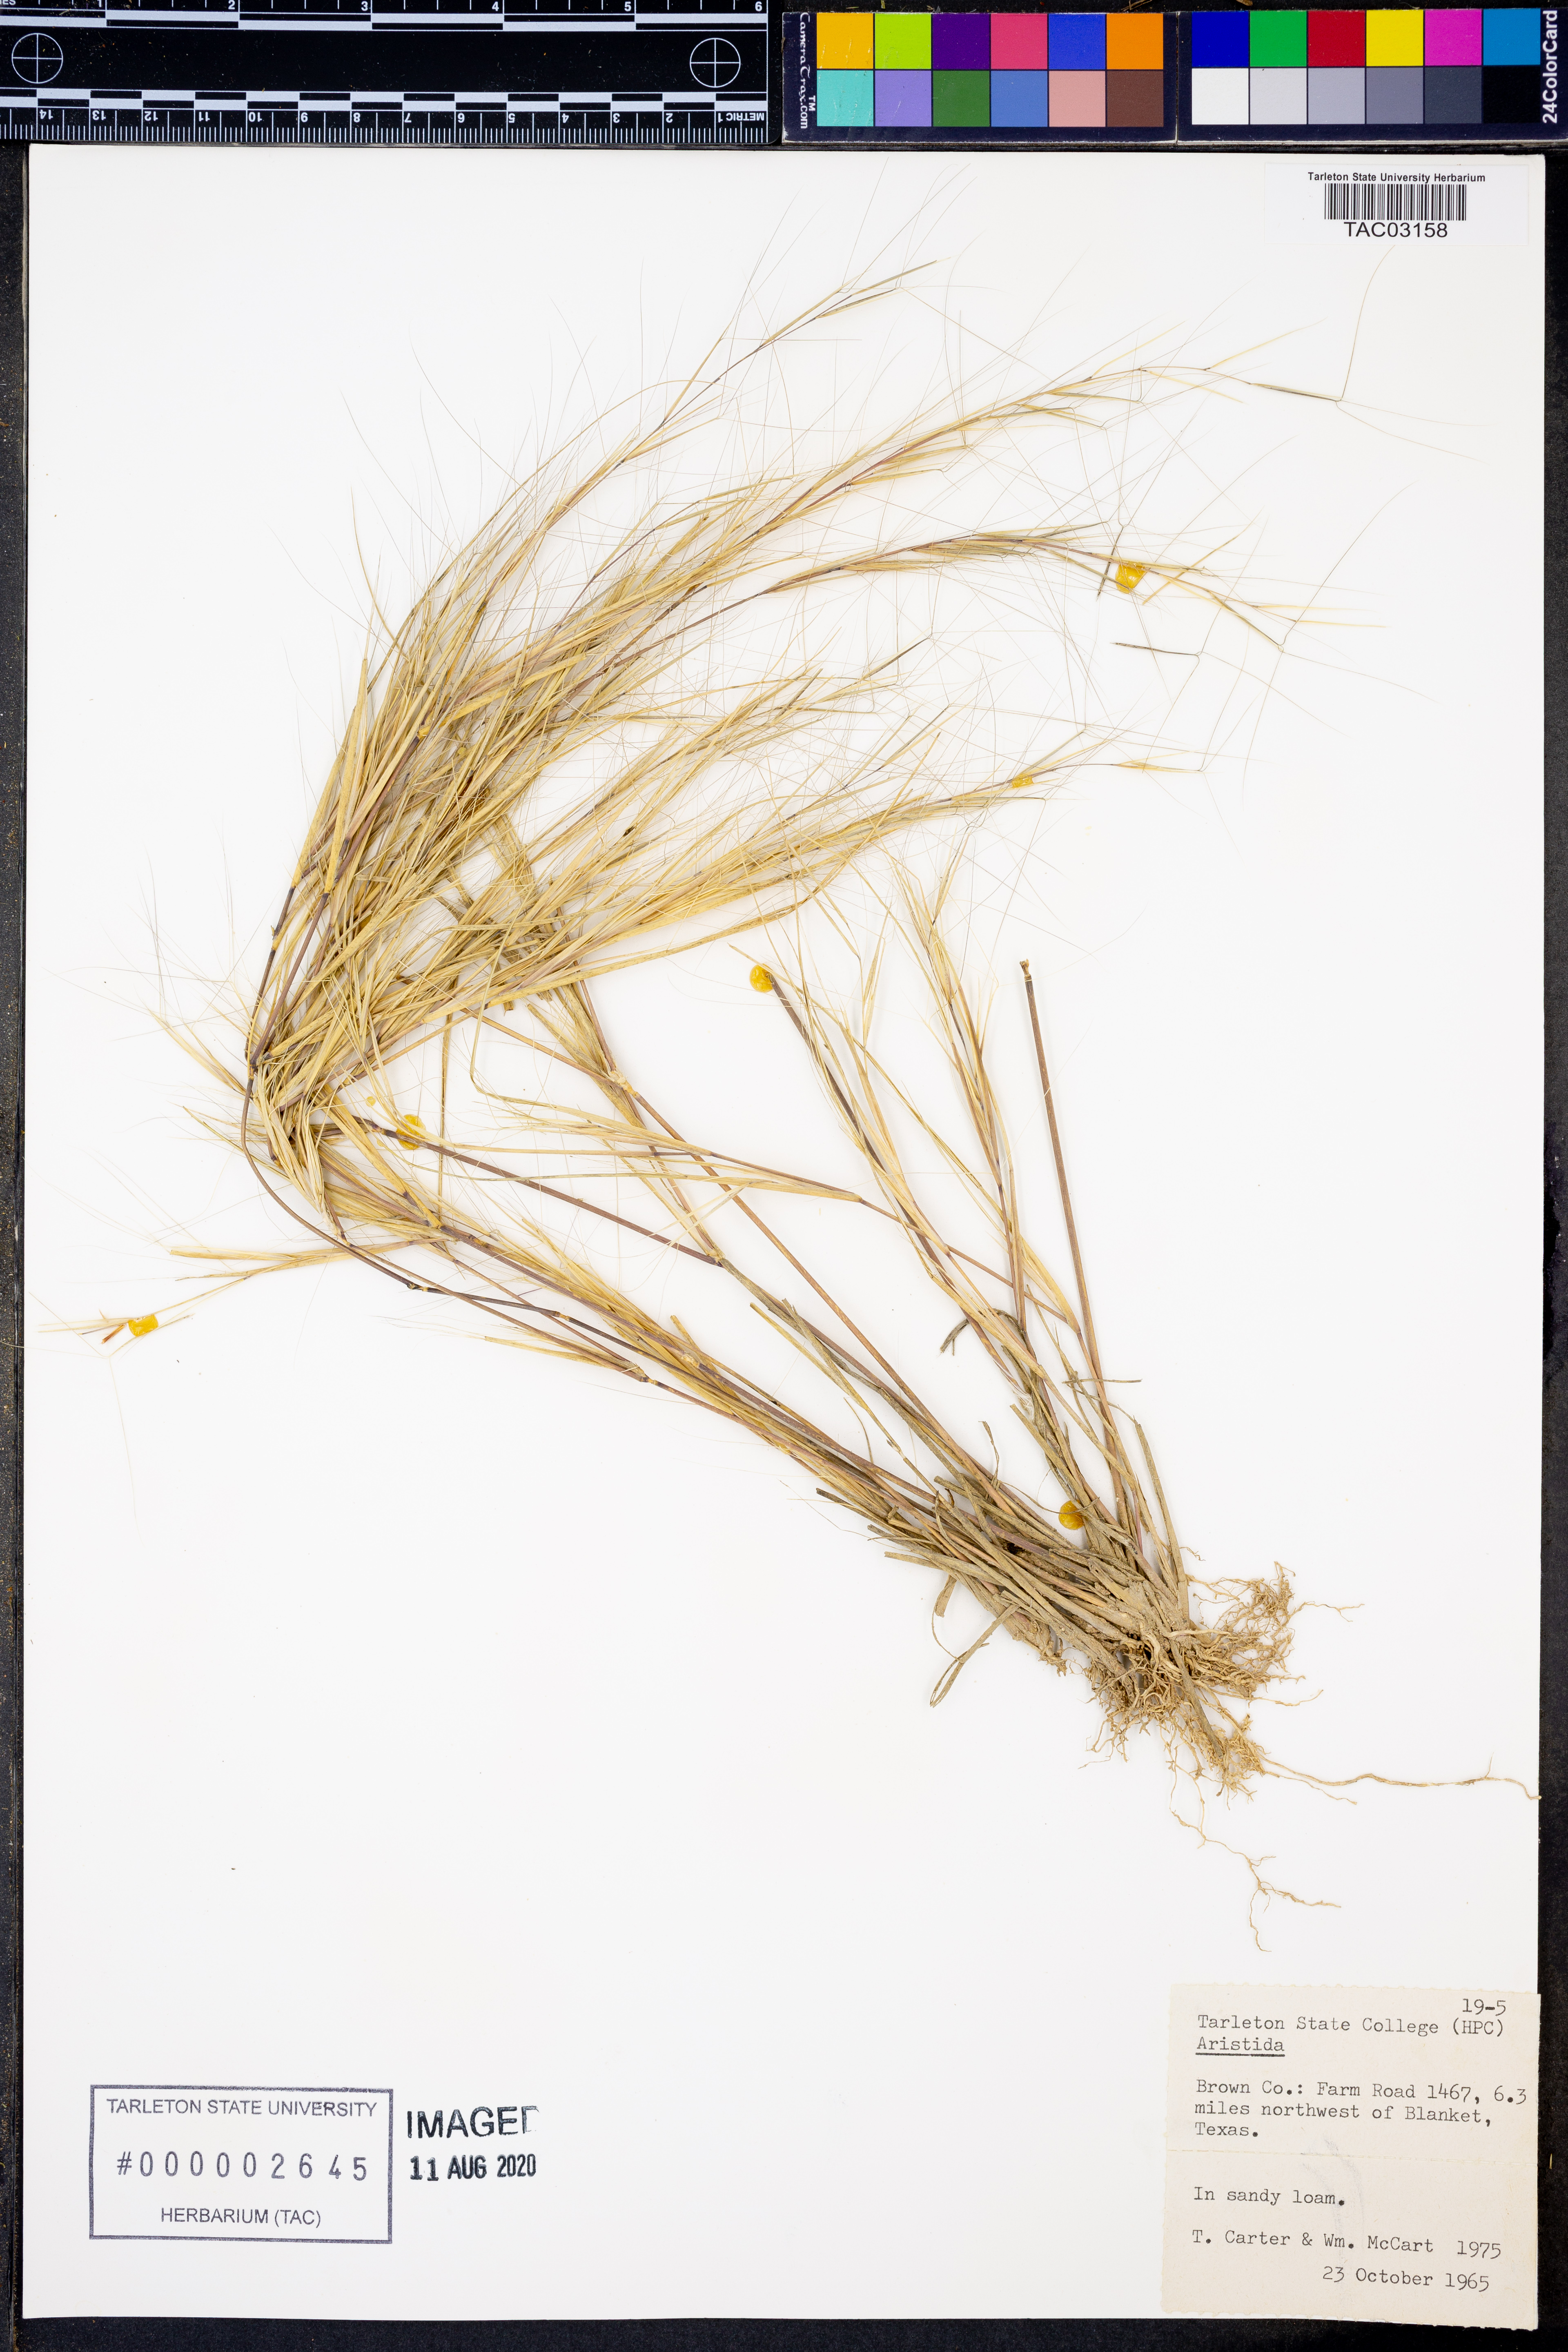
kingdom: Plantae
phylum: Tracheophyta
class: Liliopsida
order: Poales
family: Poaceae
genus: Aristida
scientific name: Aristida
